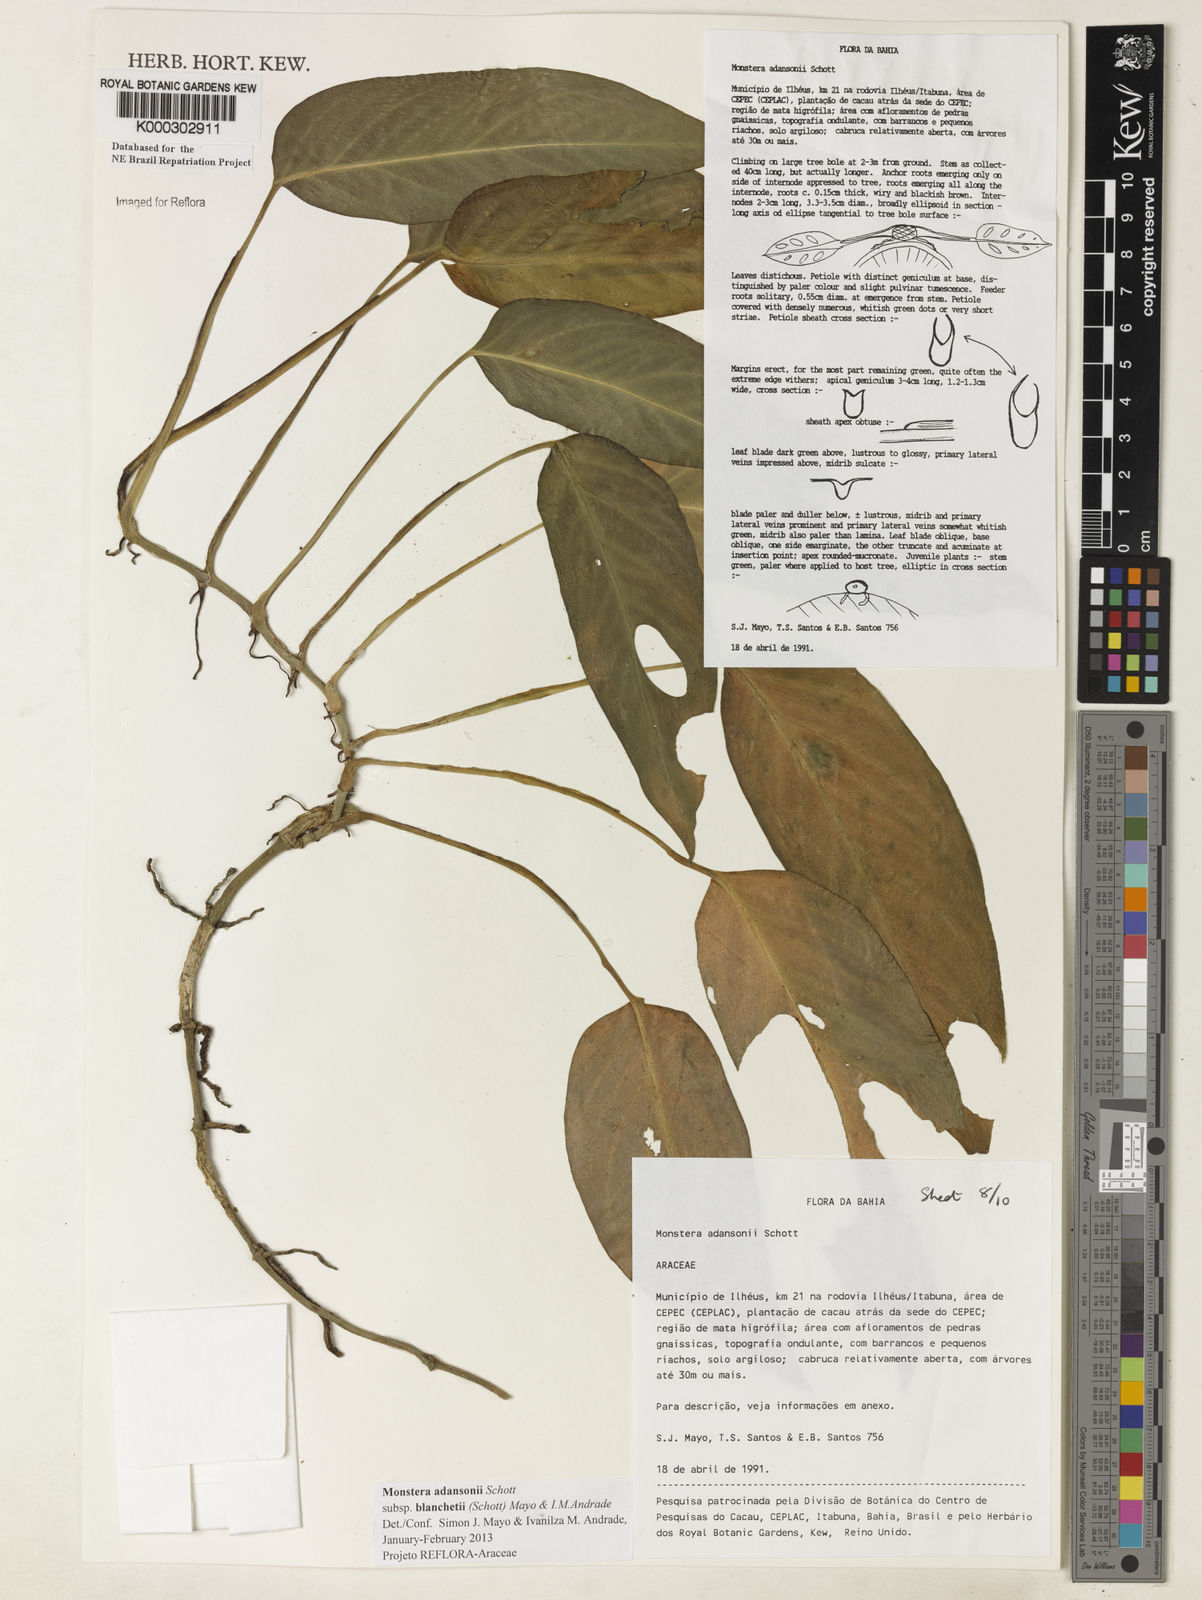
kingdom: Plantae
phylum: Tracheophyta
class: Liliopsida
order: Alismatales
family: Araceae
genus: Monstera
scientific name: Monstera adansonii
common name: Tarovine
